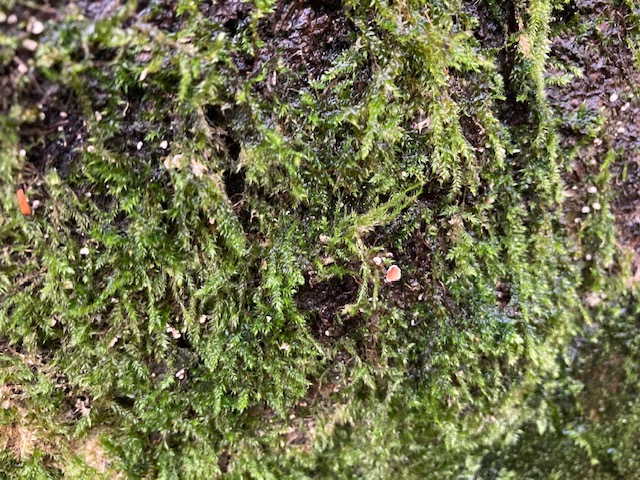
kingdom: Fungi
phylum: Basidiomycota
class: Agaricomycetes
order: Agaricales
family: Chromocyphellaceae
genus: Chromocyphella
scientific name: Chromocyphella muscicola
